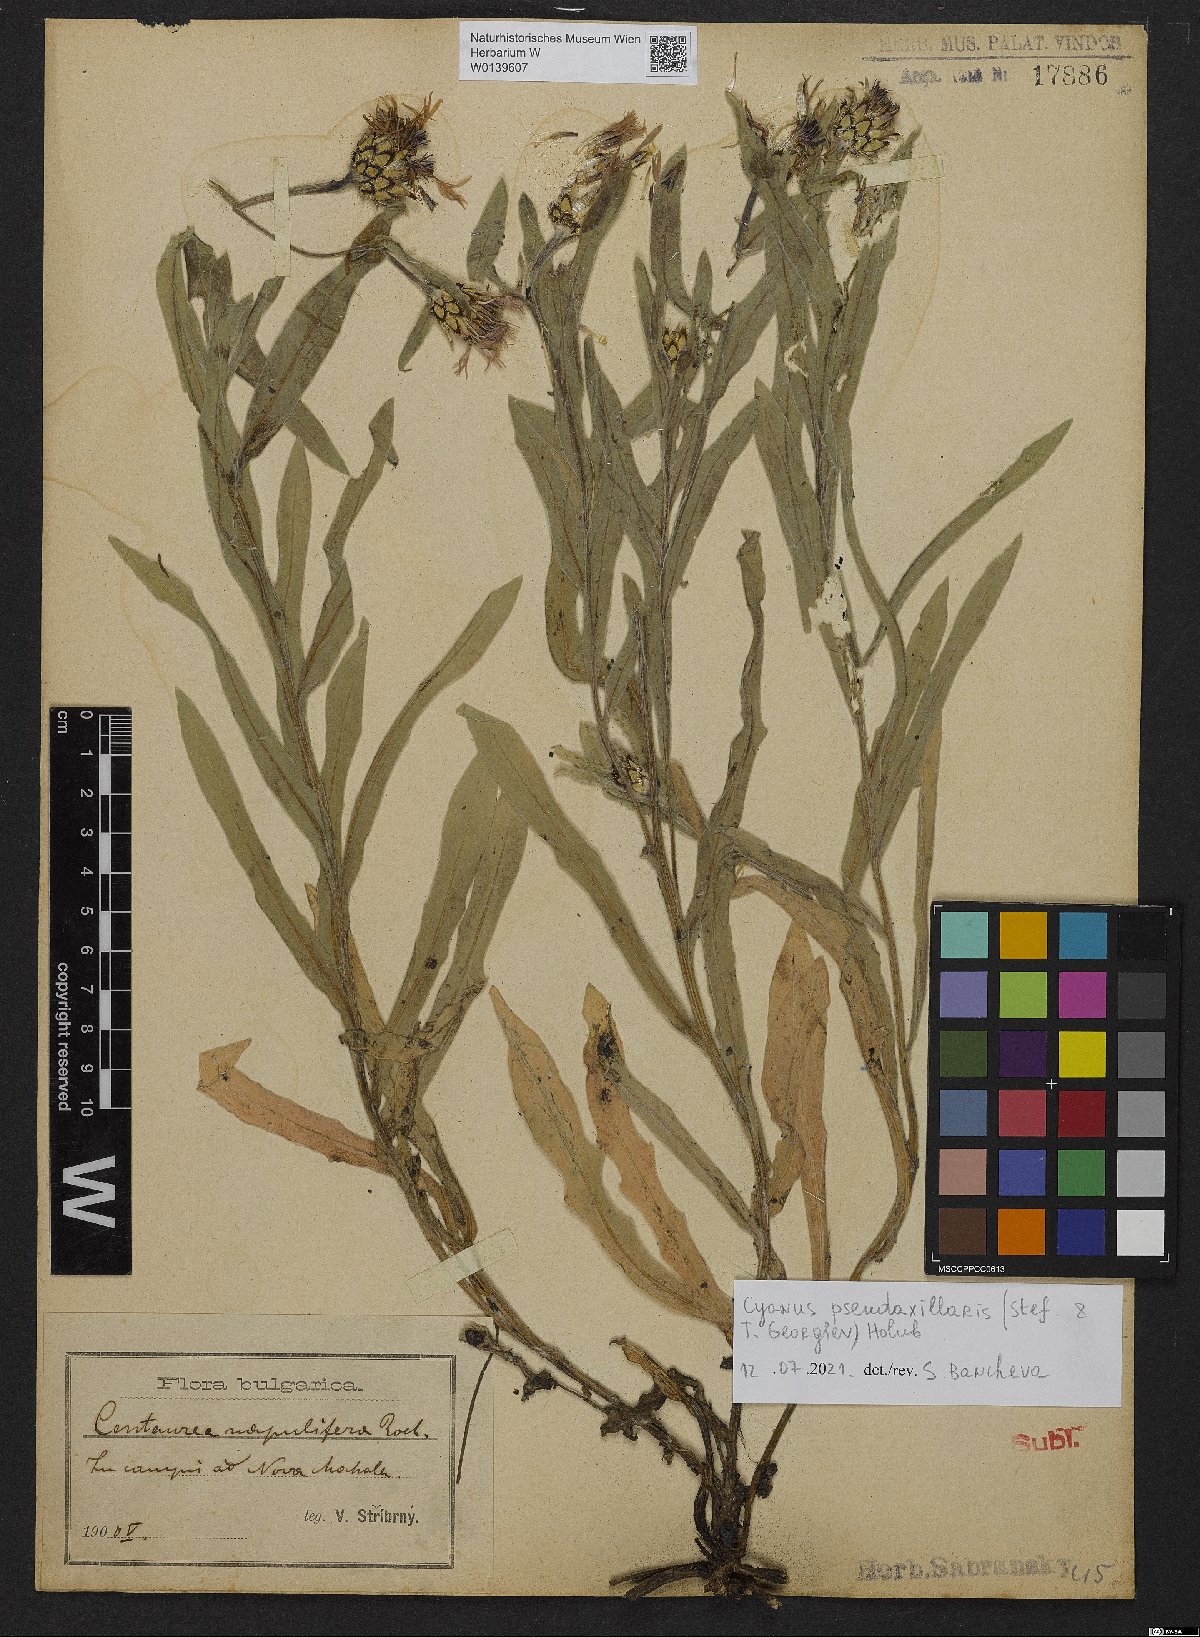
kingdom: Plantae
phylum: Tracheophyta
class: Magnoliopsida
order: Asterales
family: Asteraceae
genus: Centaurea
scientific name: Centaurea pseudoaxillaris
